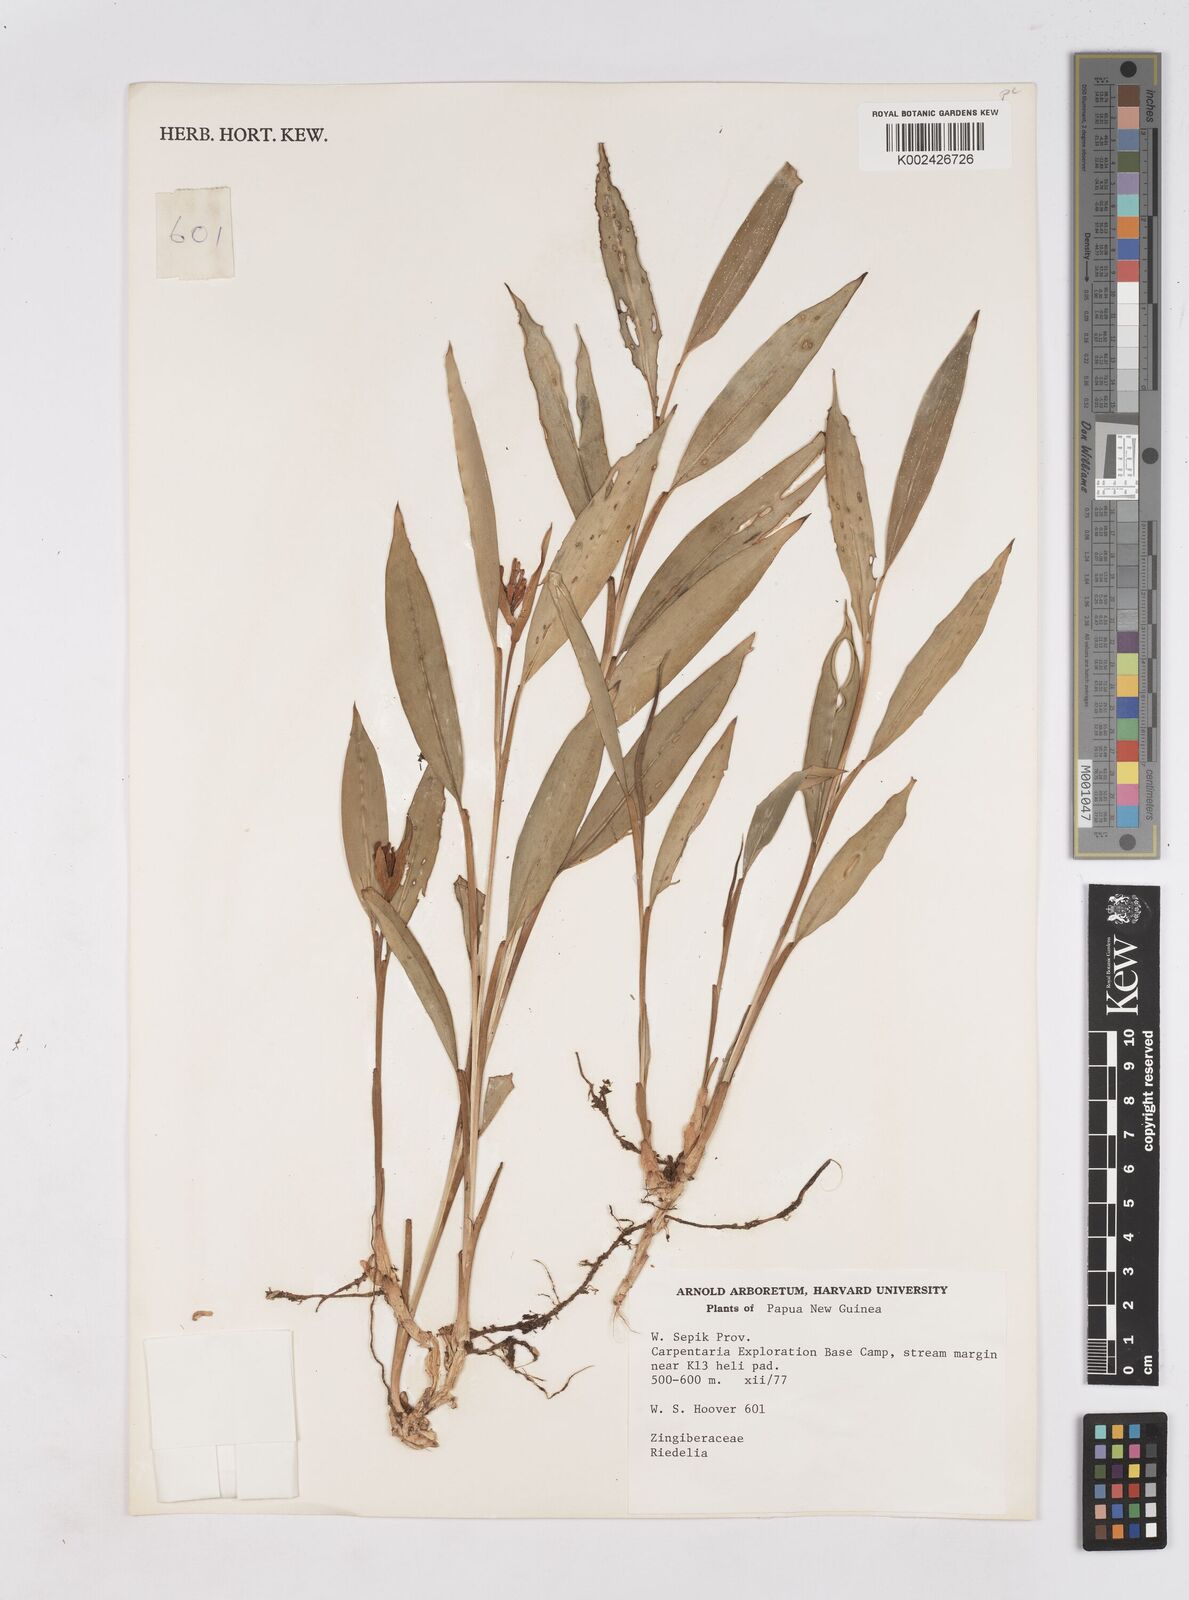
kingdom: Plantae
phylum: Tracheophyta
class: Liliopsida
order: Zingiberales
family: Zingiberaceae
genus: Riedelia
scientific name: Riedelia
